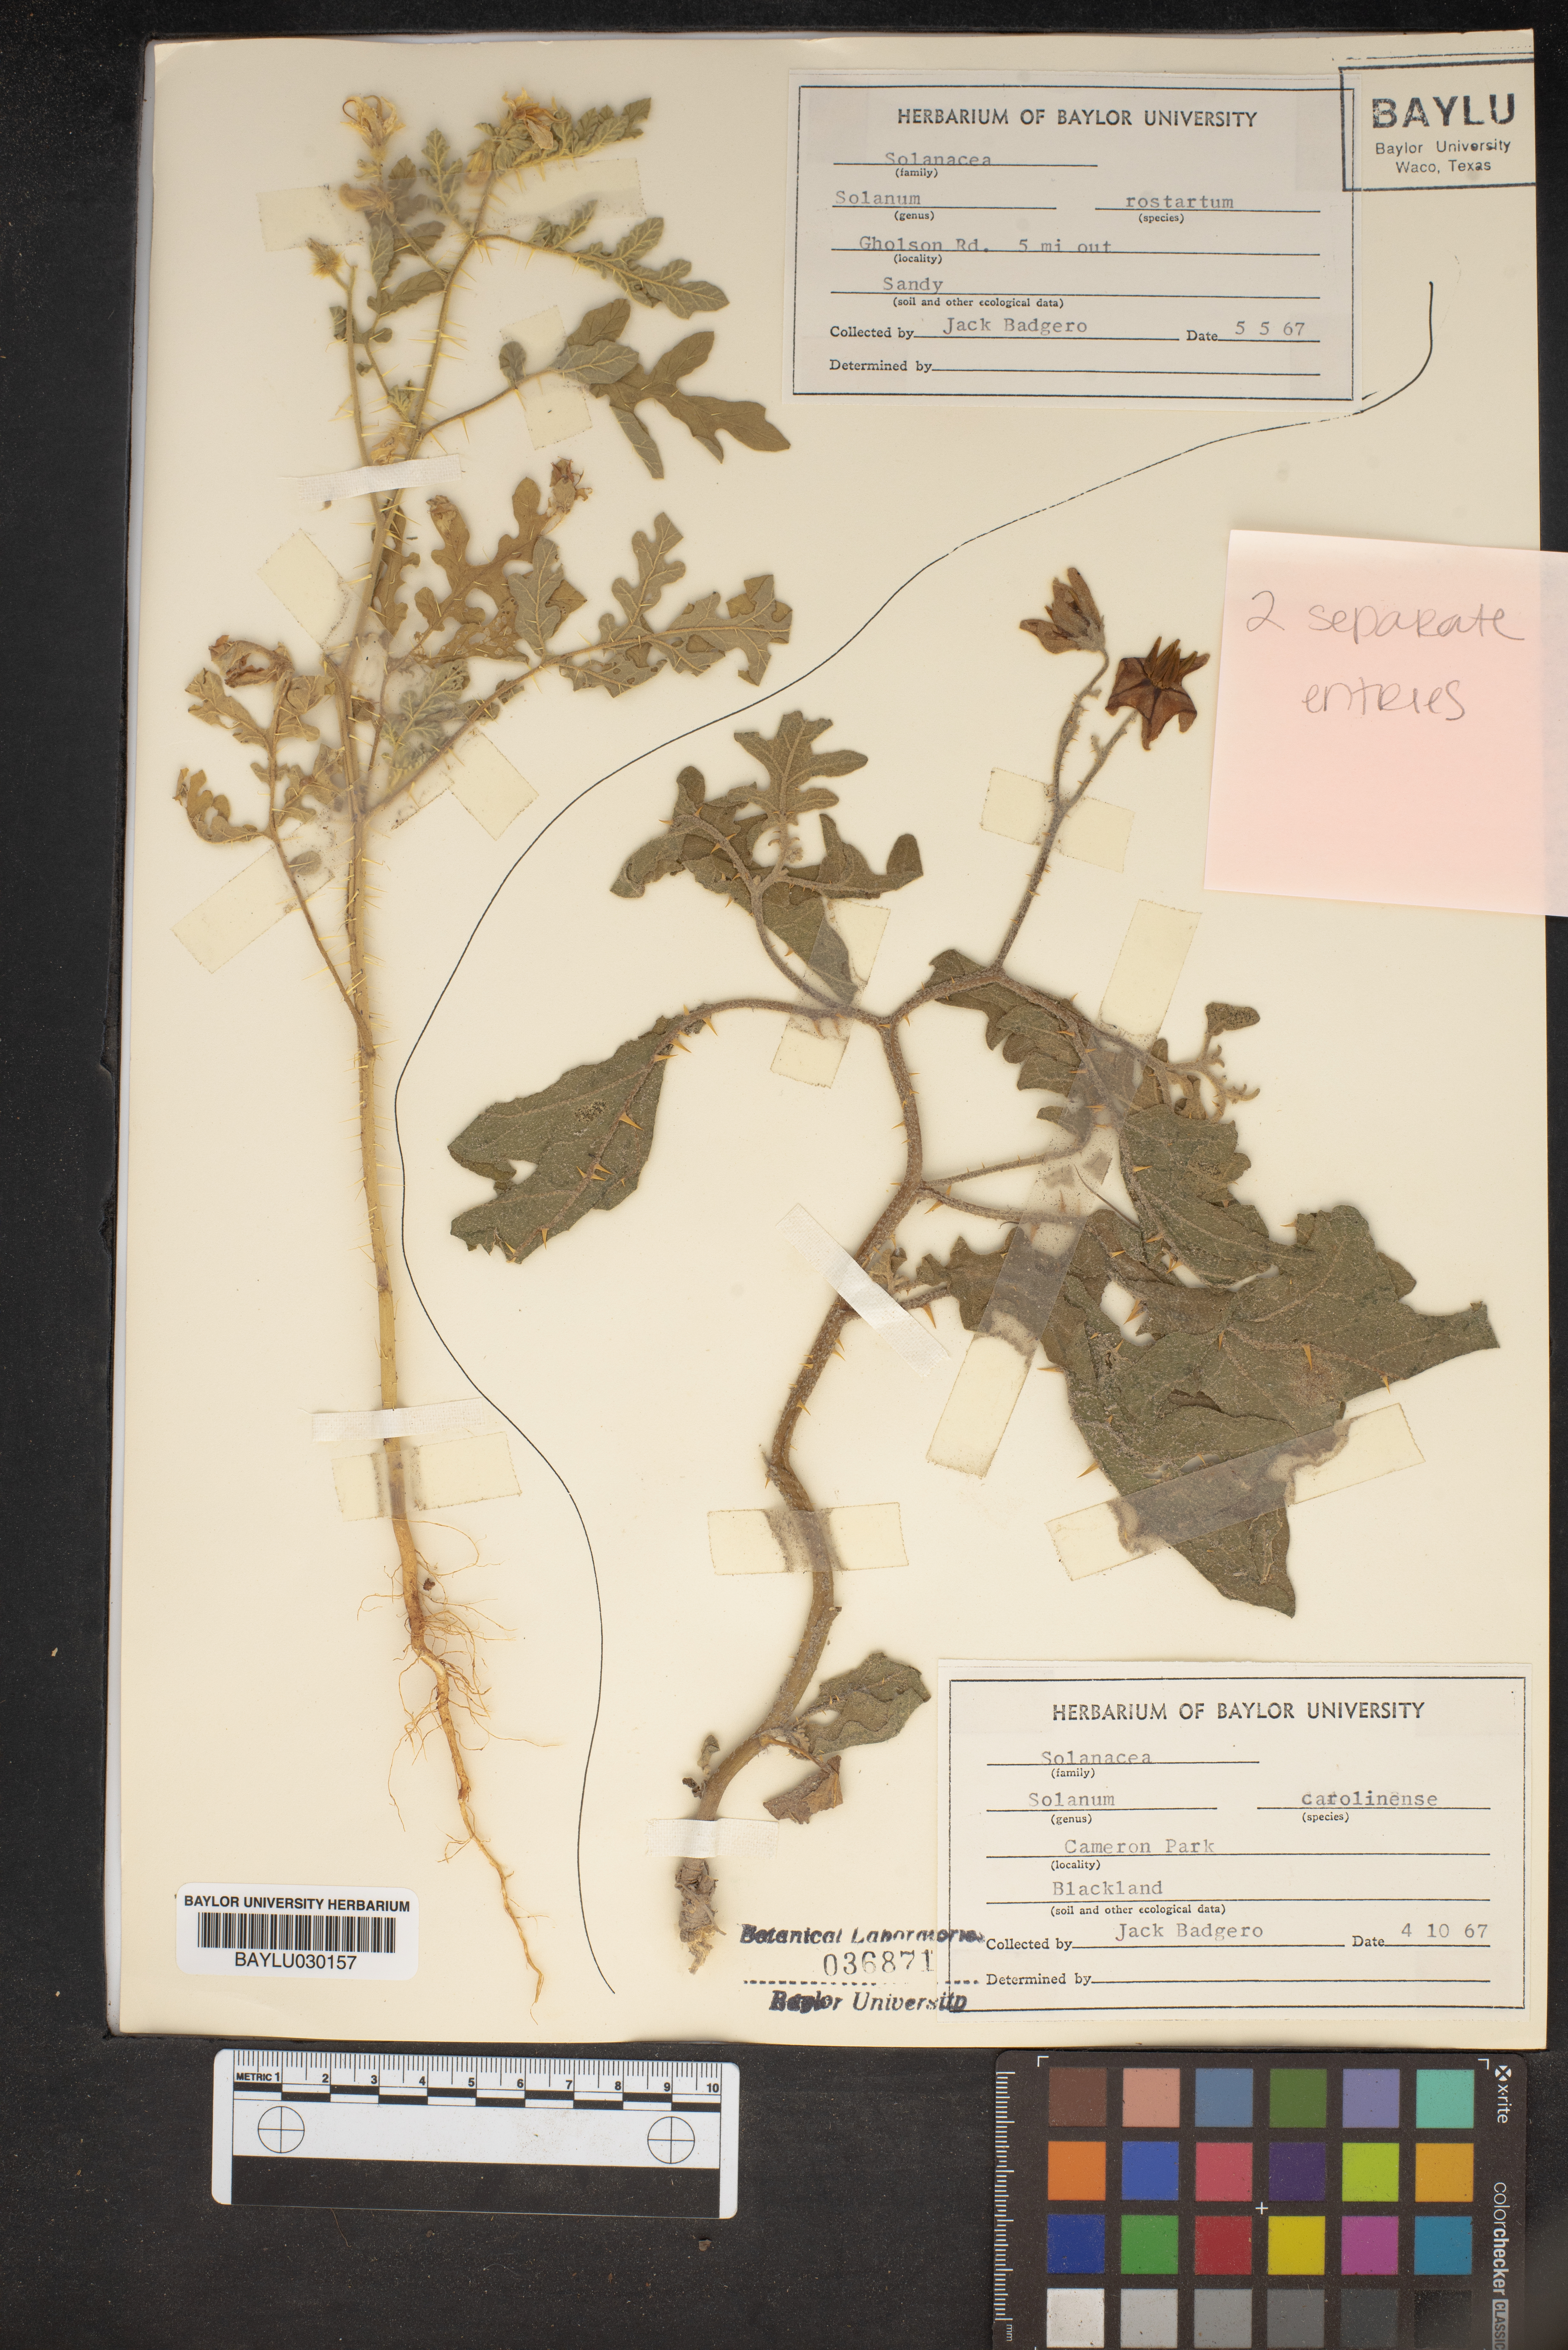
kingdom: Plantae
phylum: Tracheophyta
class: Magnoliopsida
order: Solanales
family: Solanaceae
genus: Solanum
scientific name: Solanum carolinense
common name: Horse-nettle
